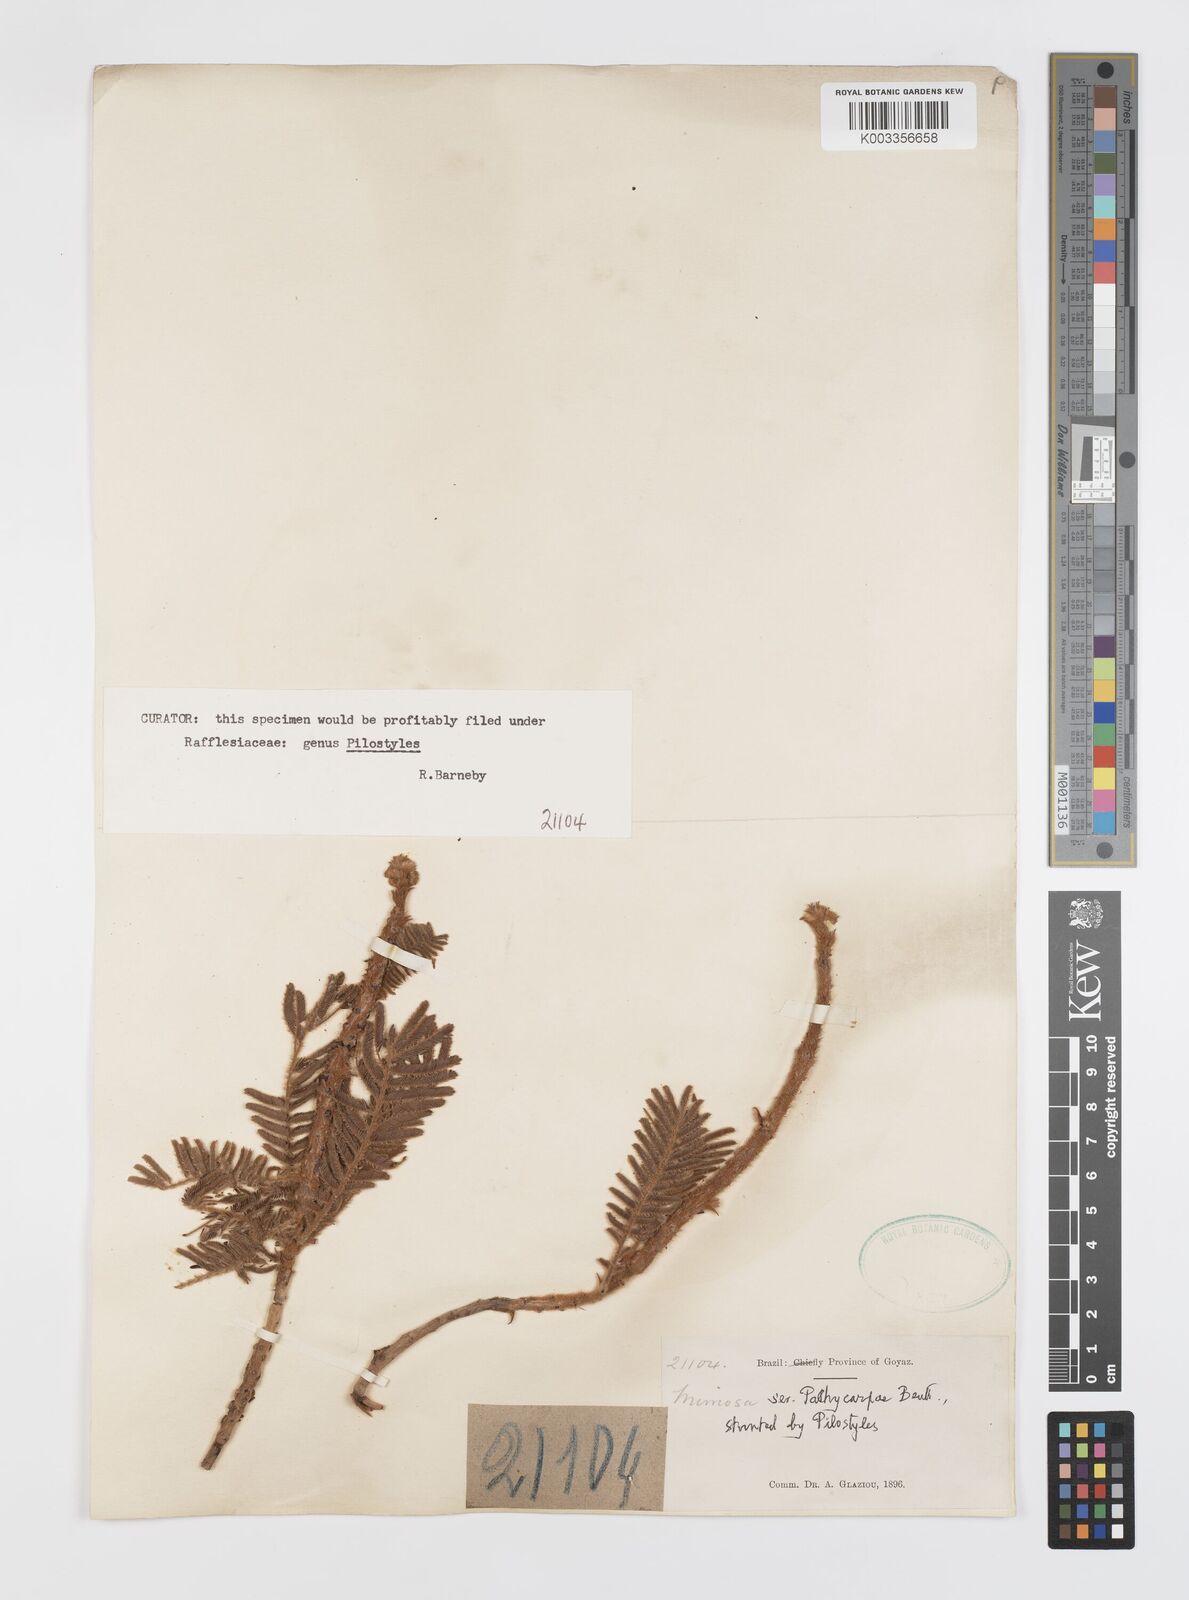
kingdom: Plantae
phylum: Tracheophyta
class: Magnoliopsida
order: Cucurbitales
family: Apodanthaceae
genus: Pilostyles
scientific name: Pilostyles blanchetii
